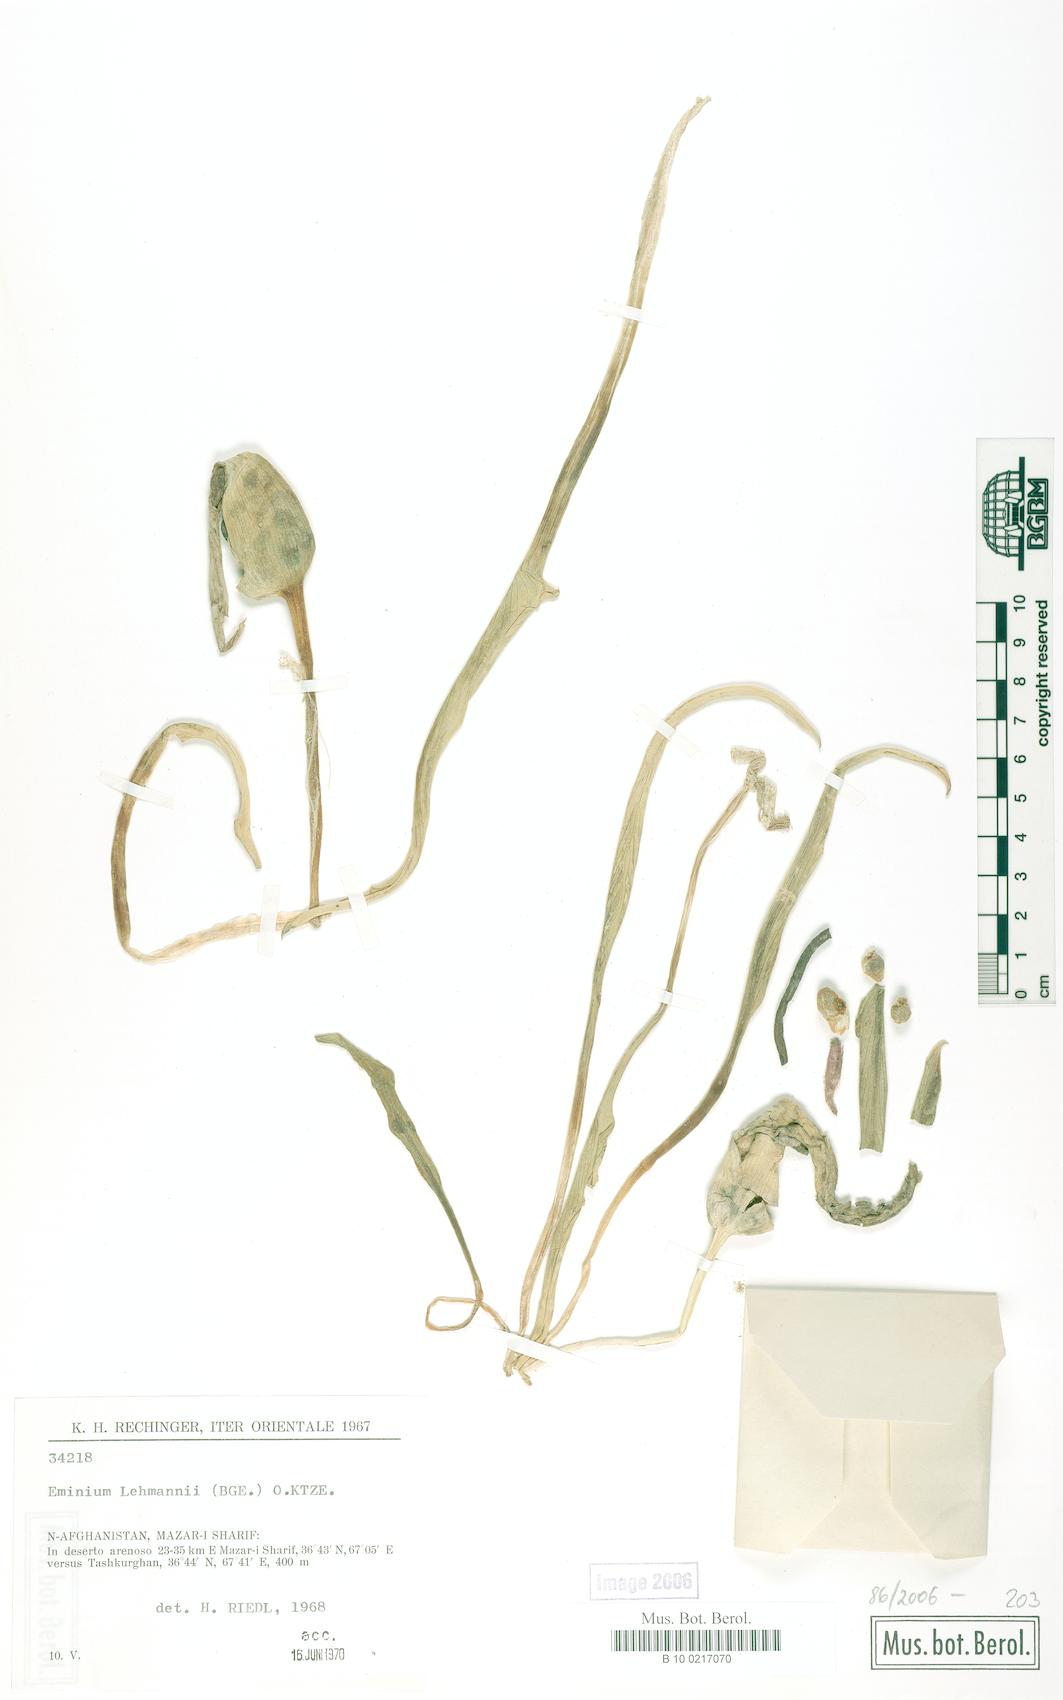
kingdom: Plantae
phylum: Tracheophyta
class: Liliopsida
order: Alismatales
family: Araceae
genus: Eminium
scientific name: Eminium lehmannii
